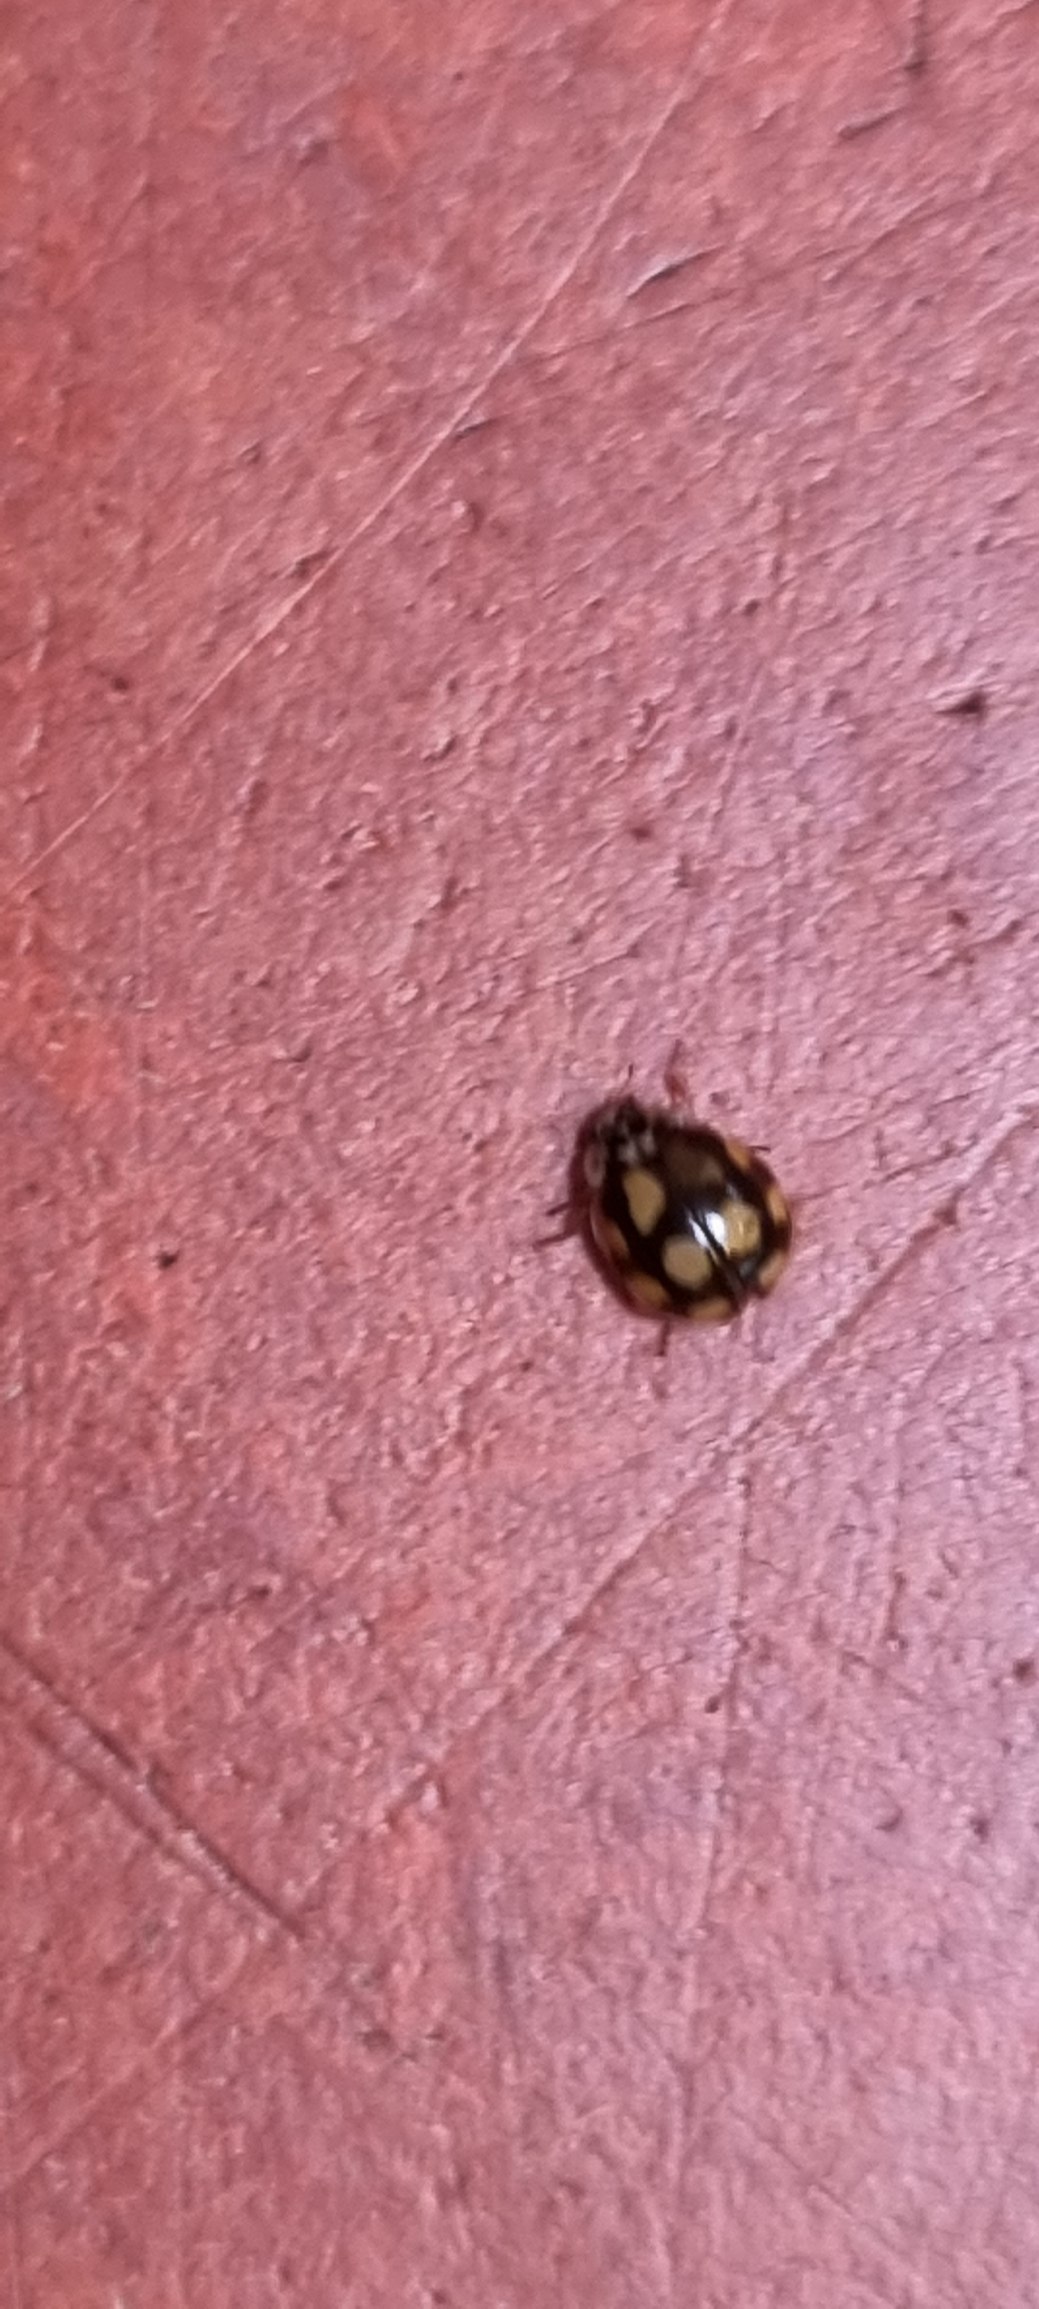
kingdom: Animalia
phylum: Arthropoda
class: Insecta
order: Coleoptera
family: Coccinellidae
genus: Adalia
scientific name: Adalia decempunctata
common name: Tiplettet mariehøne
